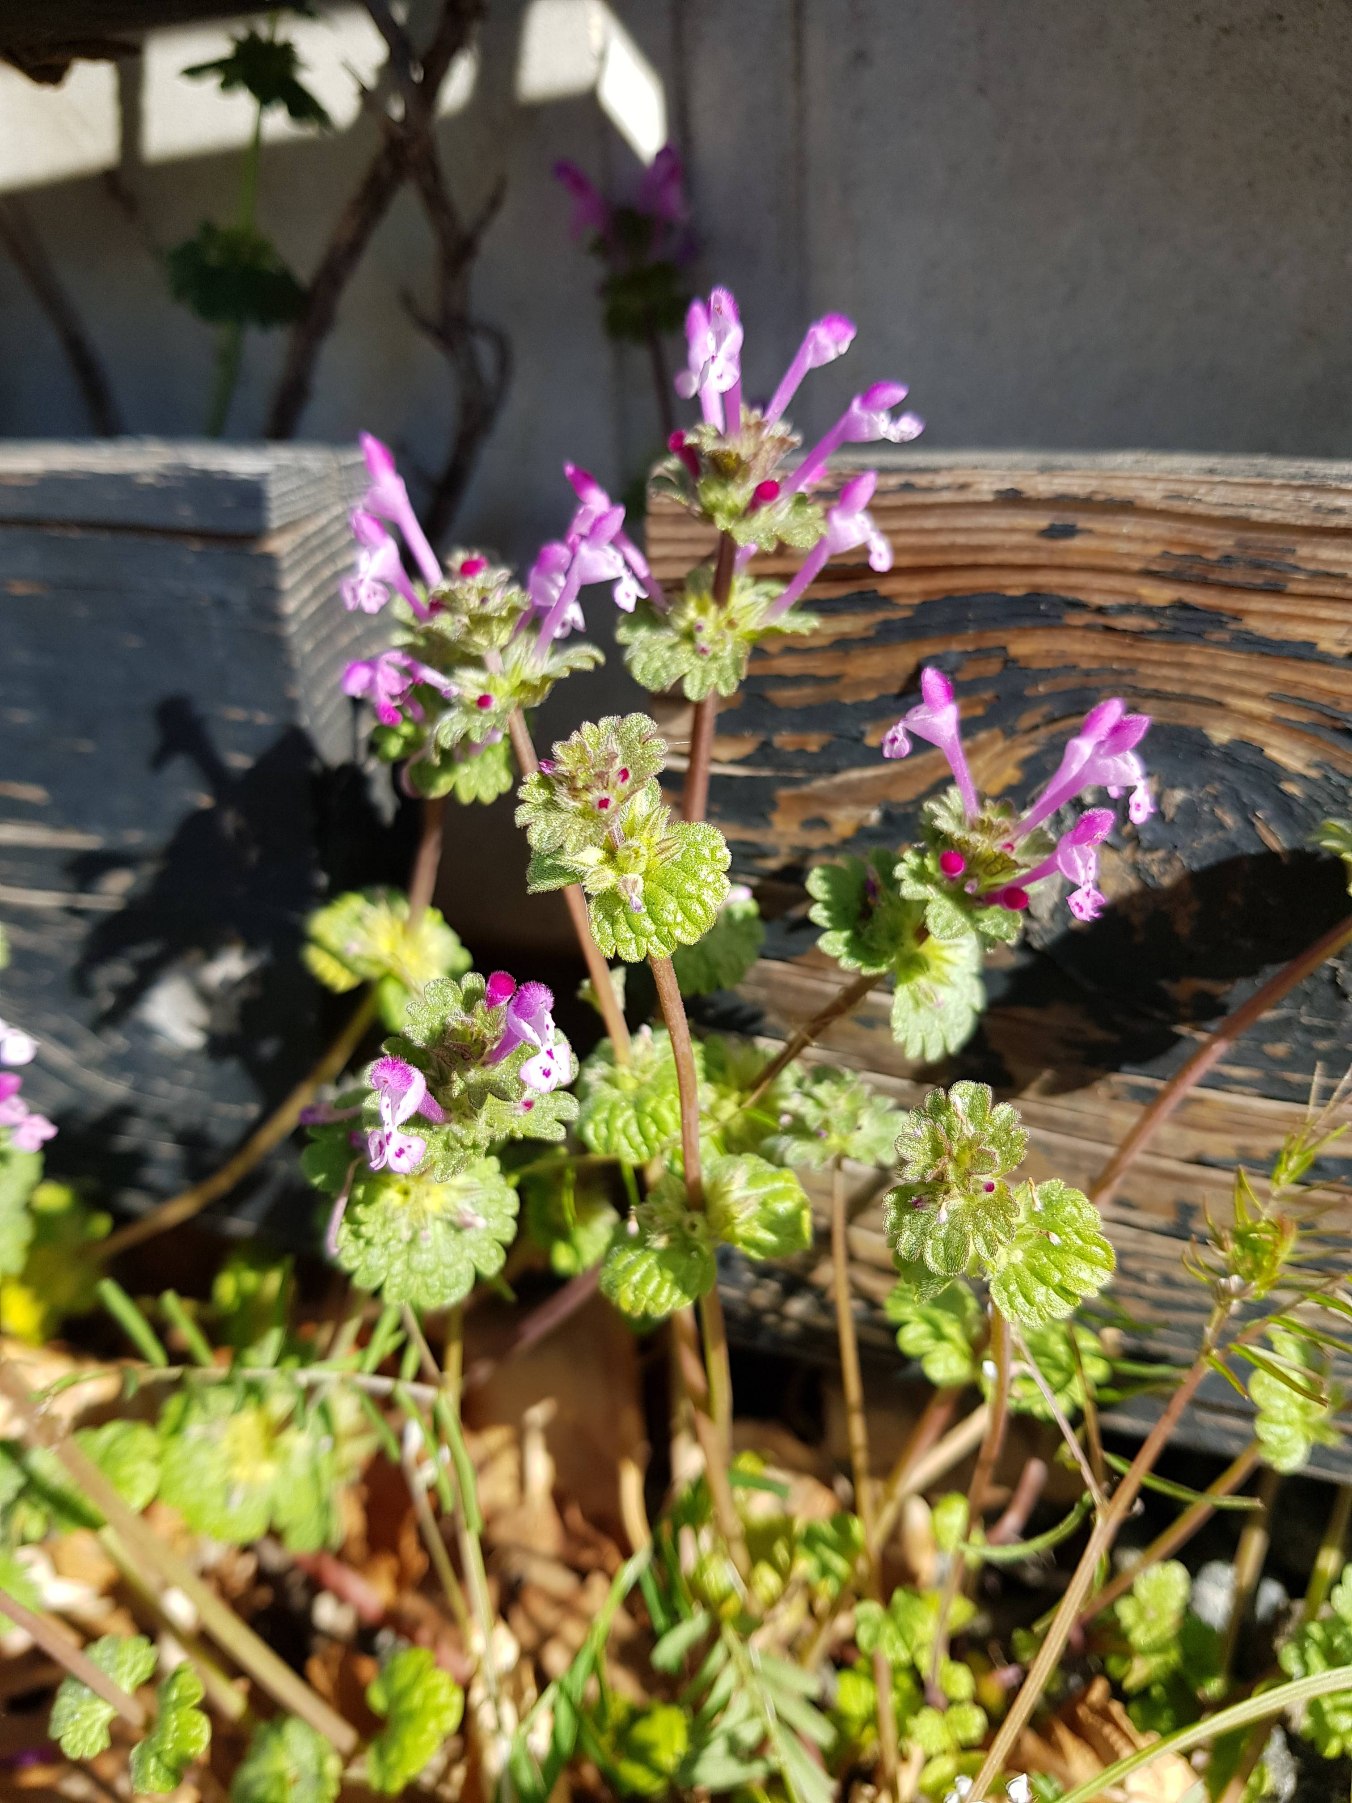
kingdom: Plantae
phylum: Tracheophyta
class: Magnoliopsida
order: Lamiales
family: Lamiaceae
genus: Lamium
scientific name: Lamium amplexicaule
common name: Liden tvetand
